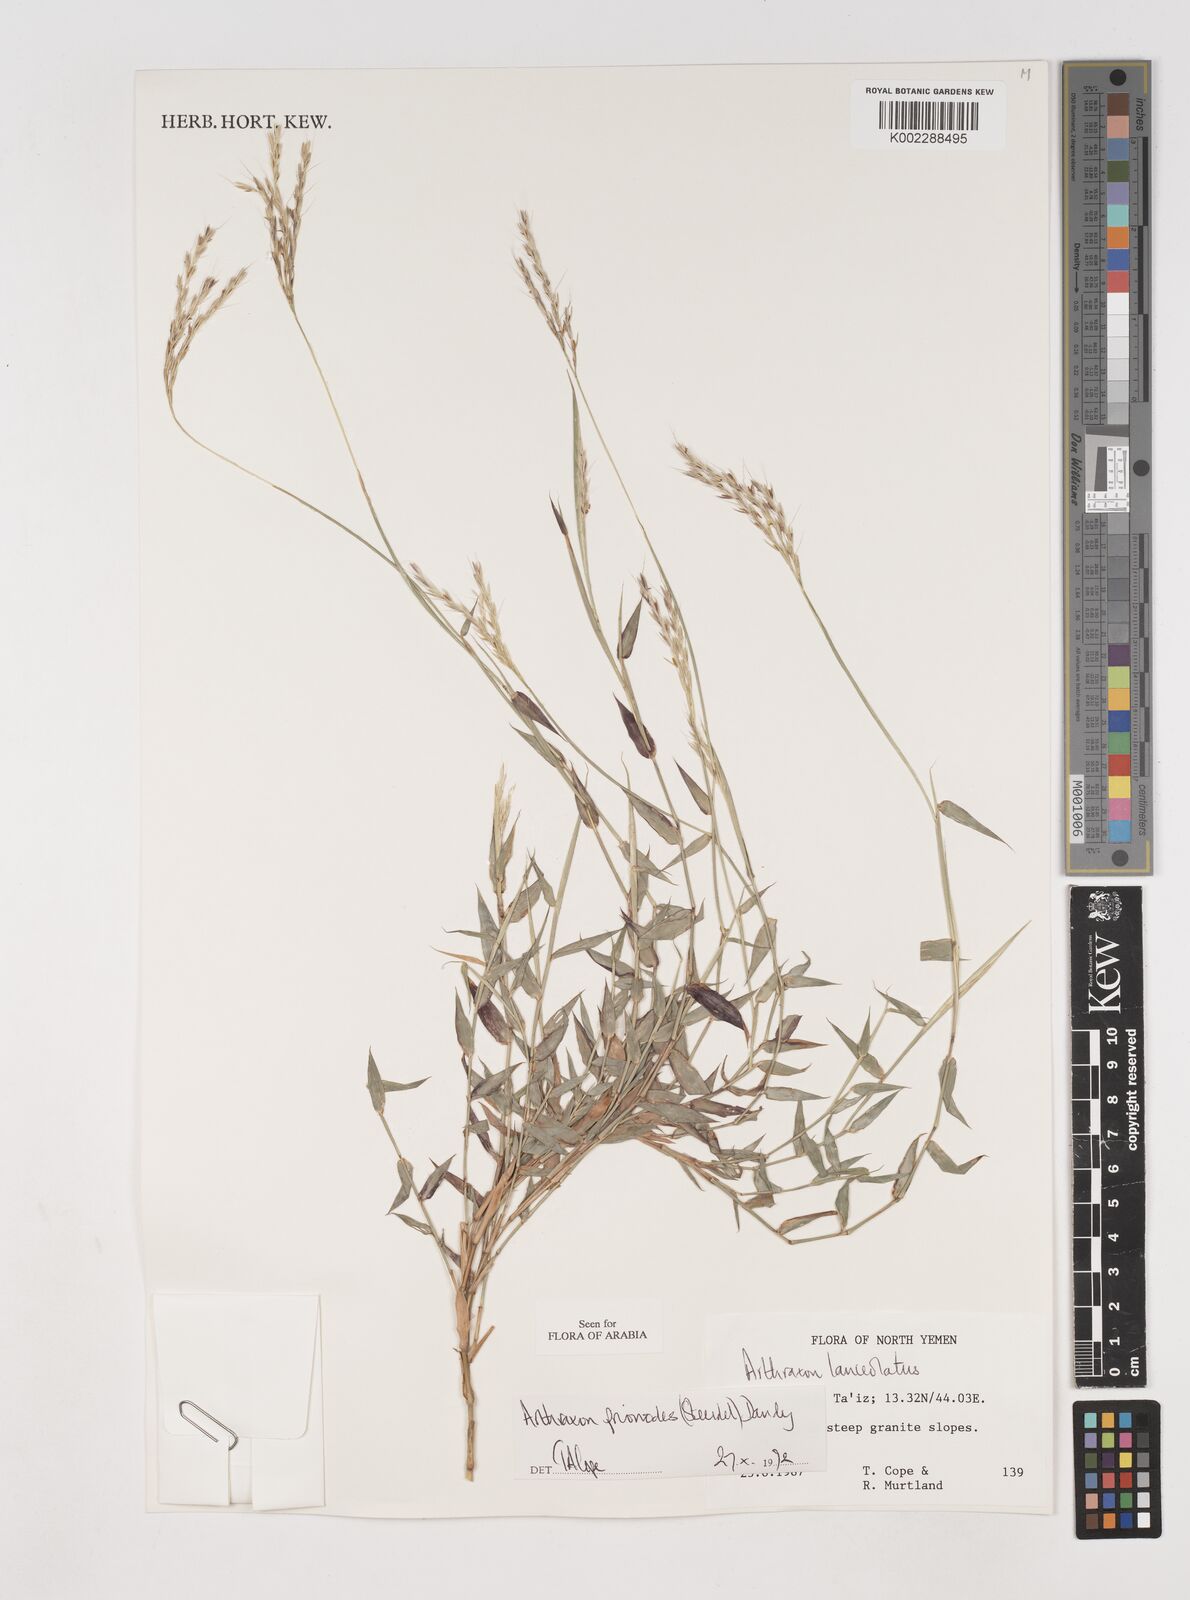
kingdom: Plantae
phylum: Tracheophyta
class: Liliopsida
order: Poales
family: Poaceae
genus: Arthraxon
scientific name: Arthraxon prionodes
